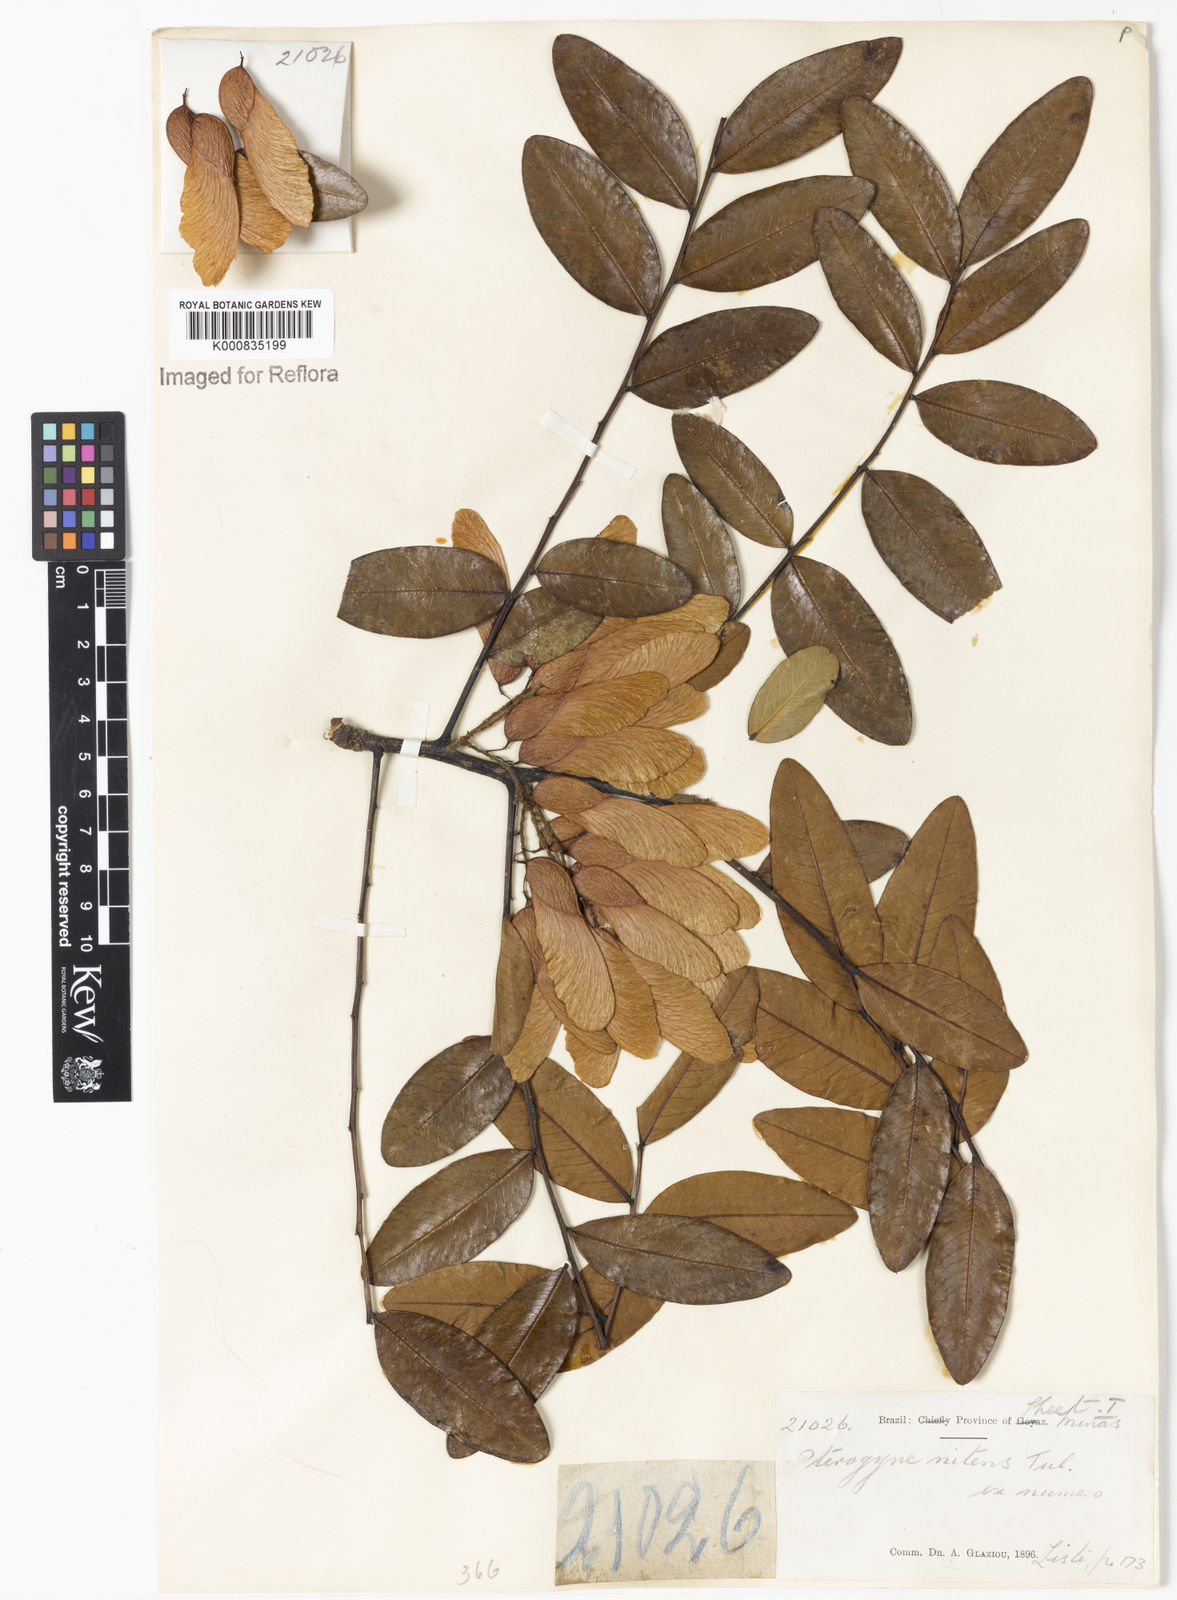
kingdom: Plantae
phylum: Tracheophyta
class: Magnoliopsida
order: Fabales
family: Fabaceae
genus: Pterogyne
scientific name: Pterogyne nitens
